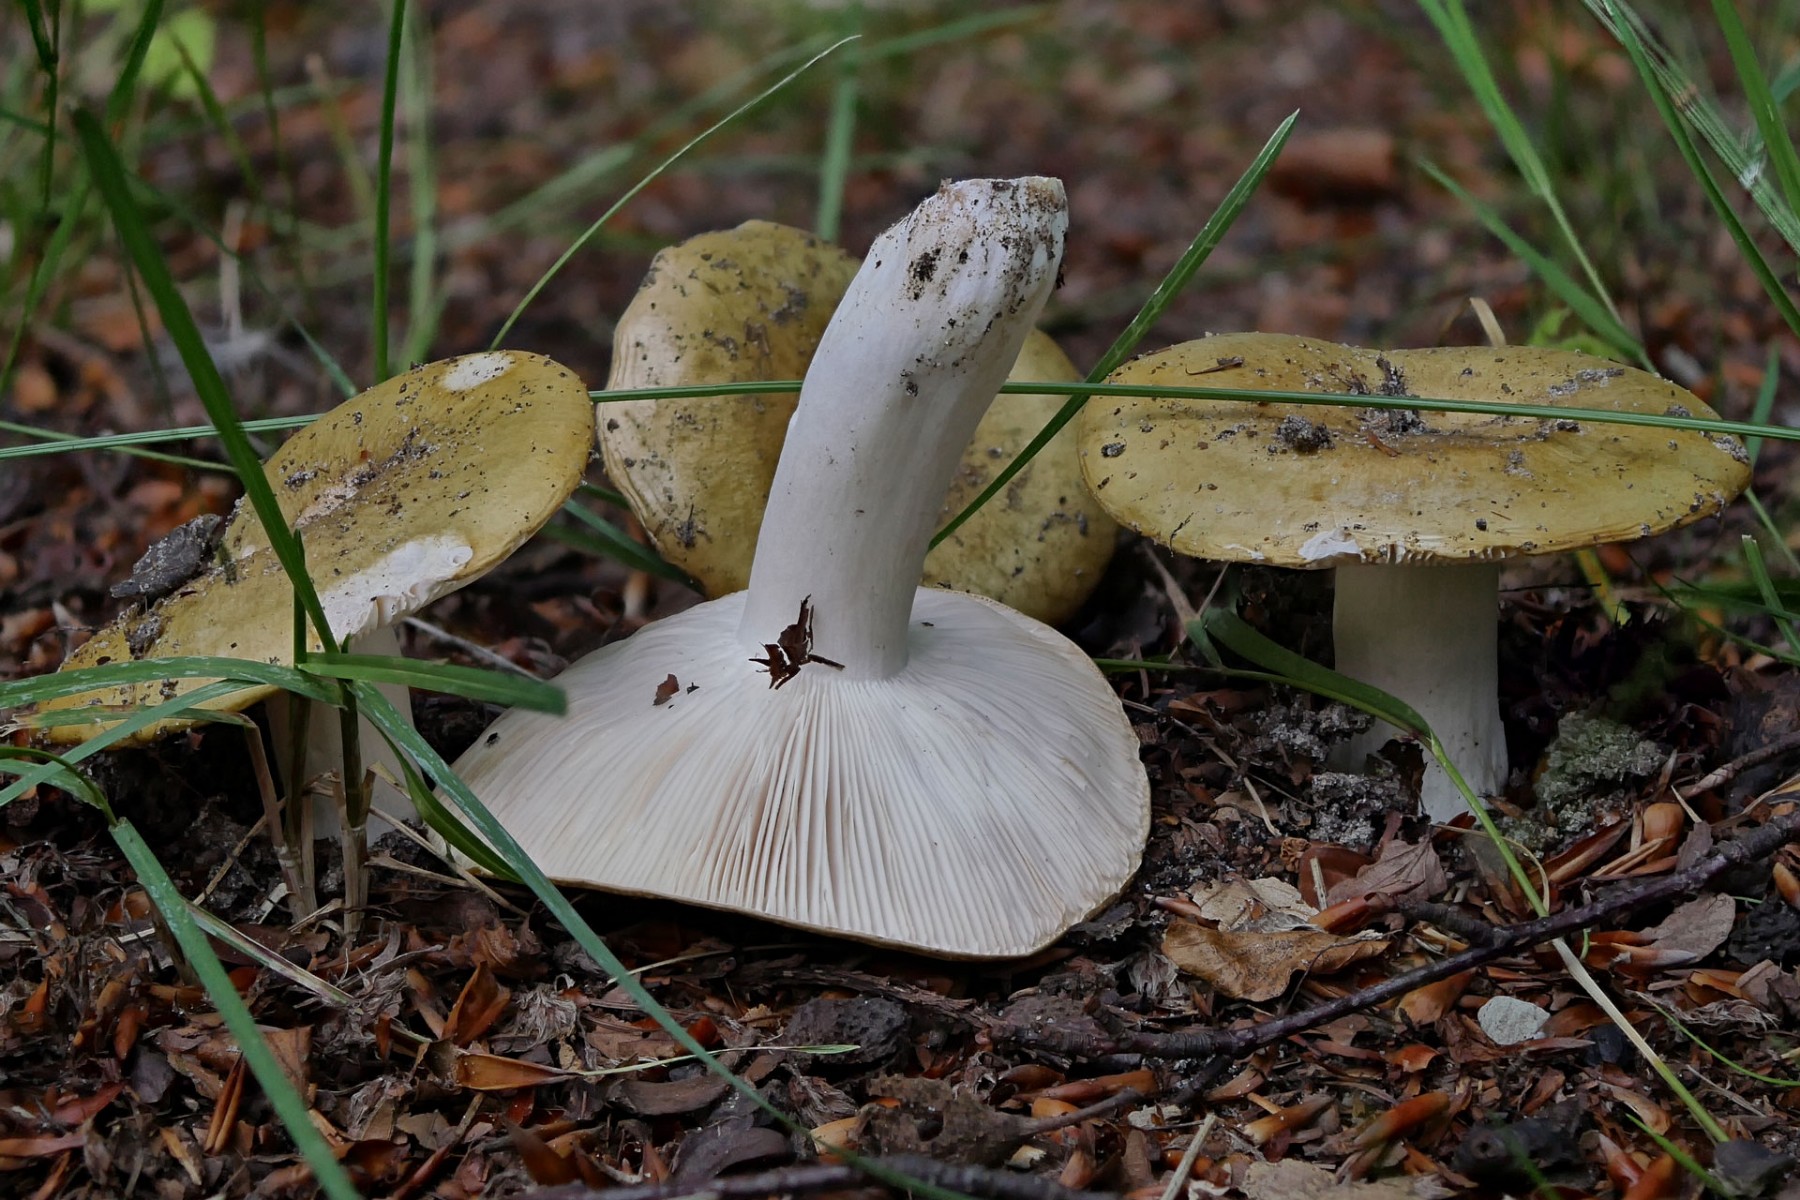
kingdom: Fungi
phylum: Basidiomycota
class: Agaricomycetes
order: Russulales
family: Russulaceae
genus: Russula
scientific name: Russula ochroleuca
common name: okkergul skørhat
